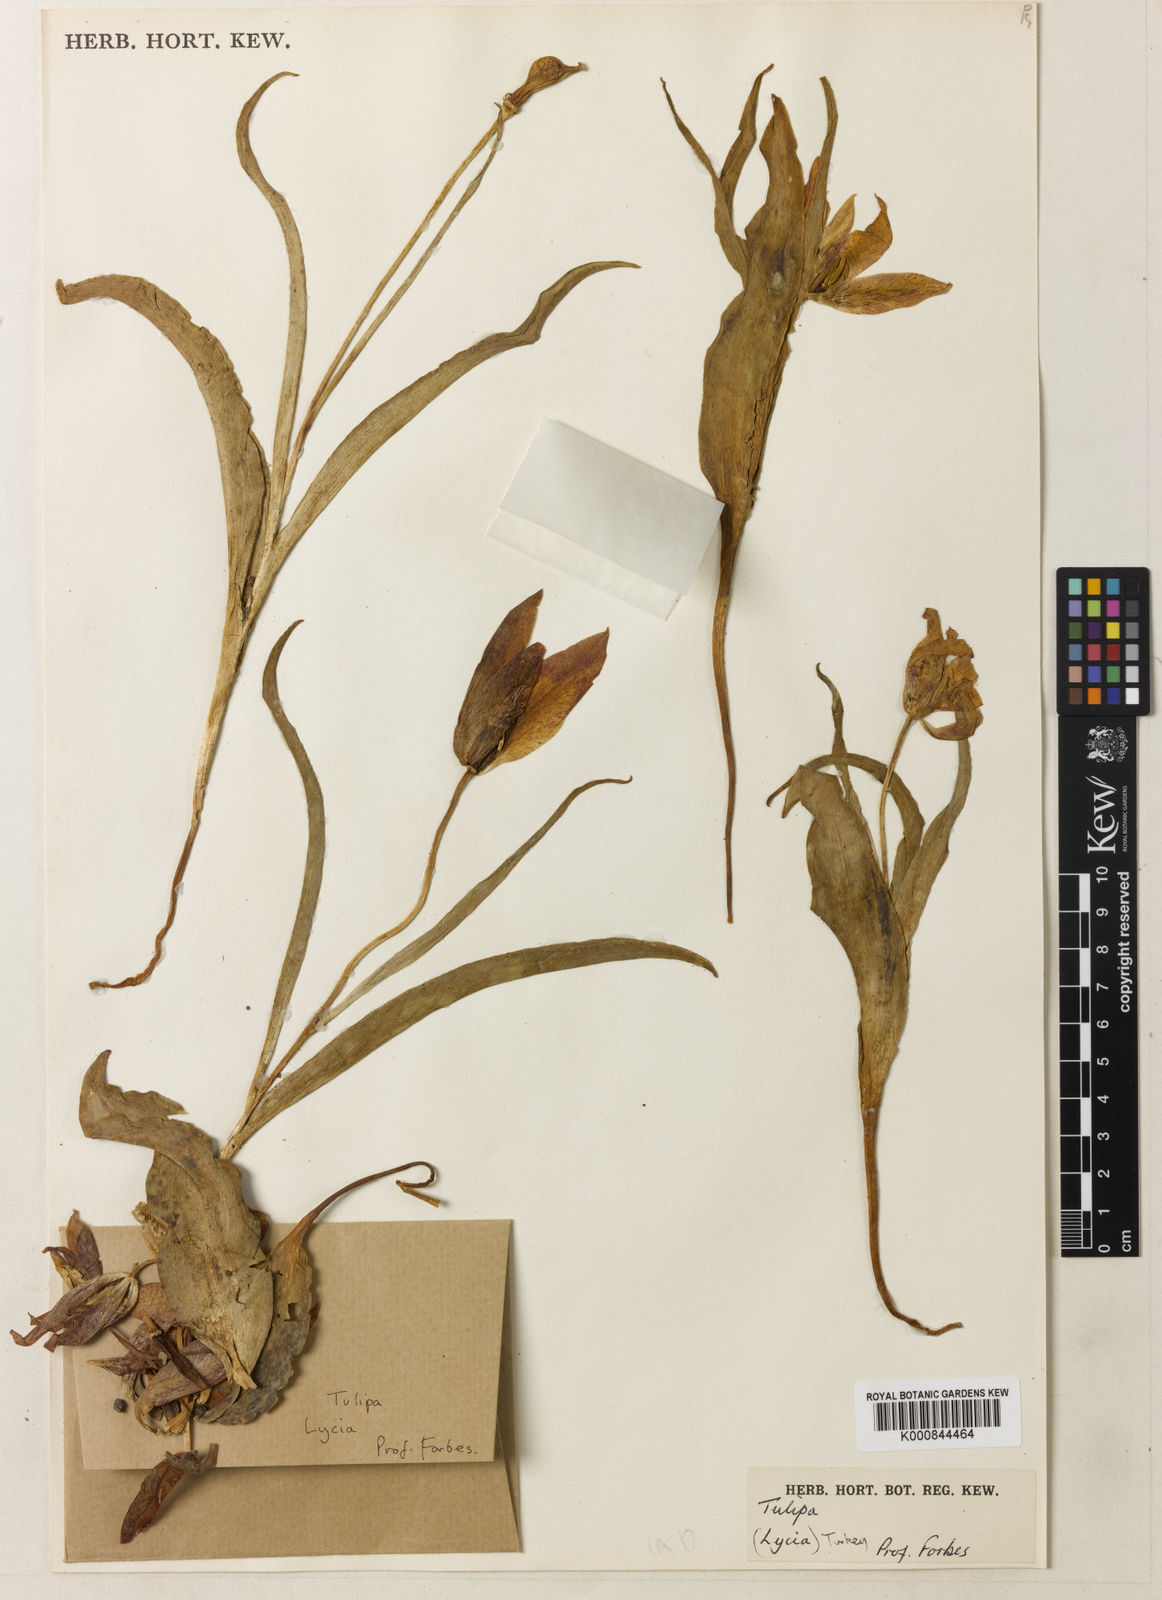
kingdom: Plantae
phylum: Tracheophyta
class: Liliopsida
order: Liliales
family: Liliaceae
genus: Tulipa
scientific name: Tulipa foliosa
